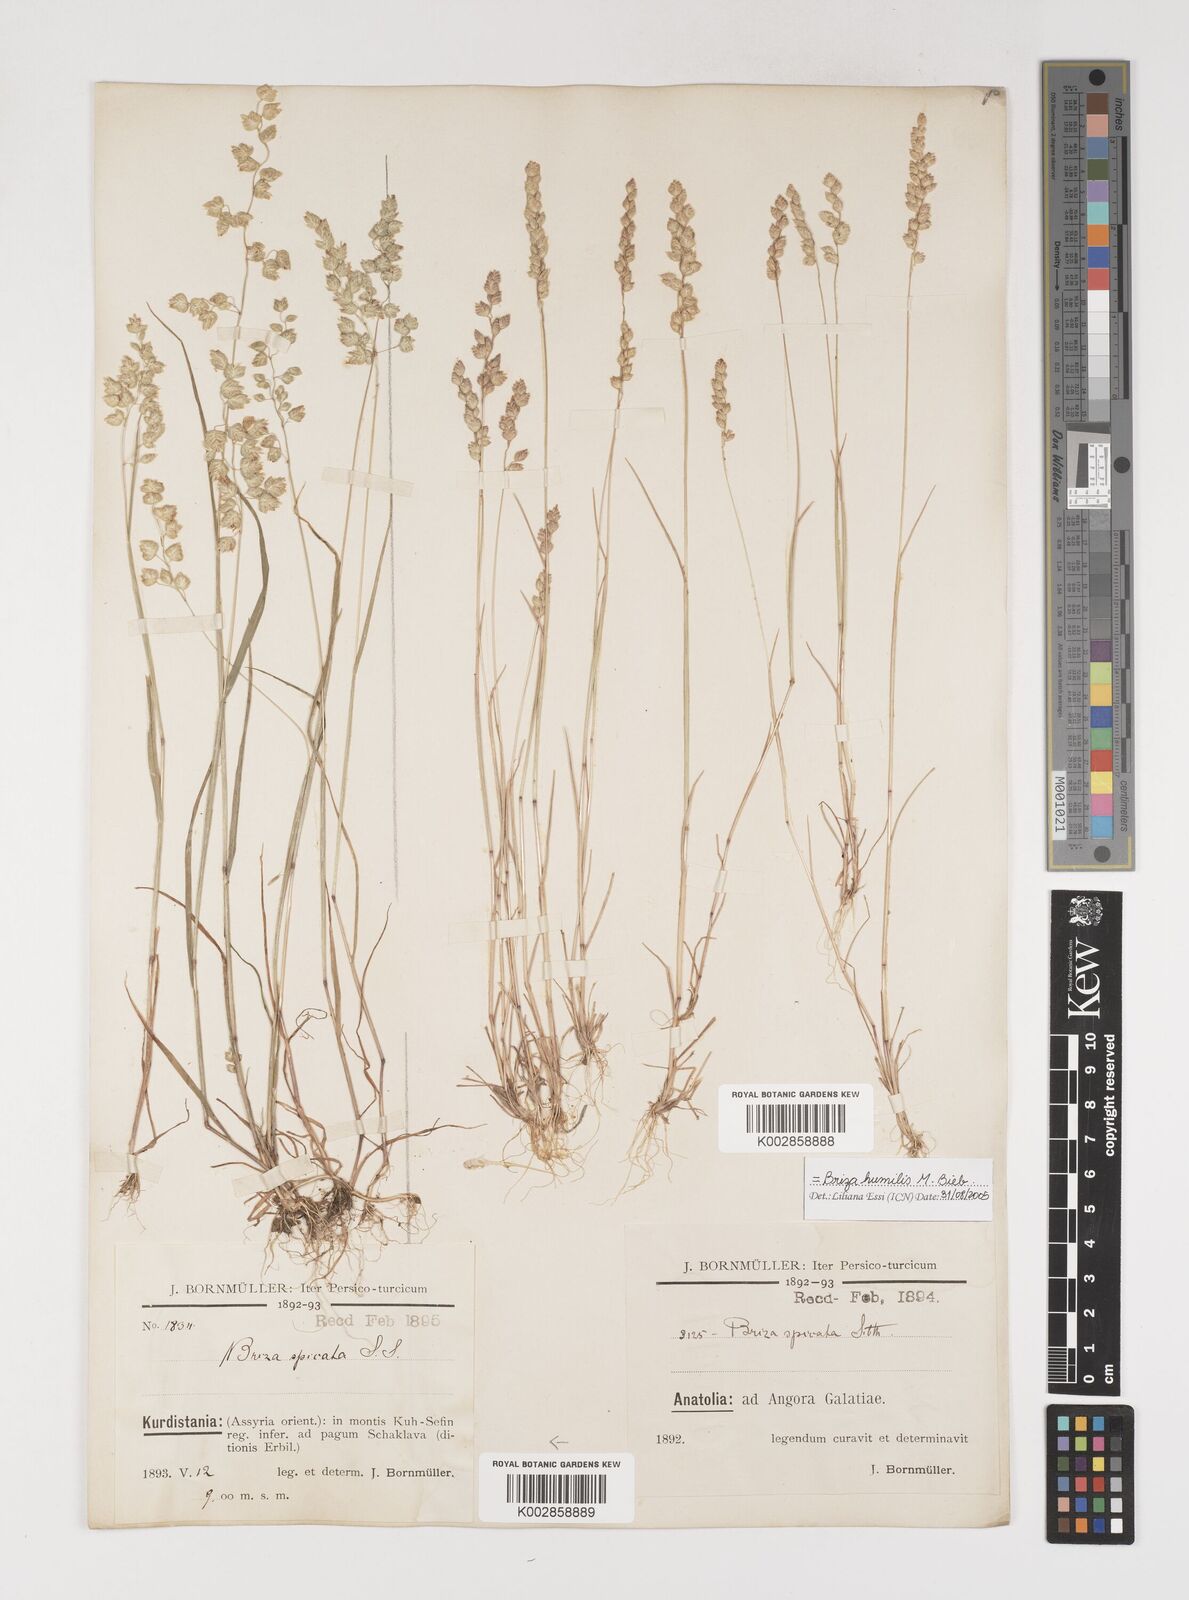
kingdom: Plantae
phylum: Tracheophyta
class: Liliopsida
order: Poales
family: Poaceae
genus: Briza
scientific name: Briza humilis
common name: Spiked quaking grass
